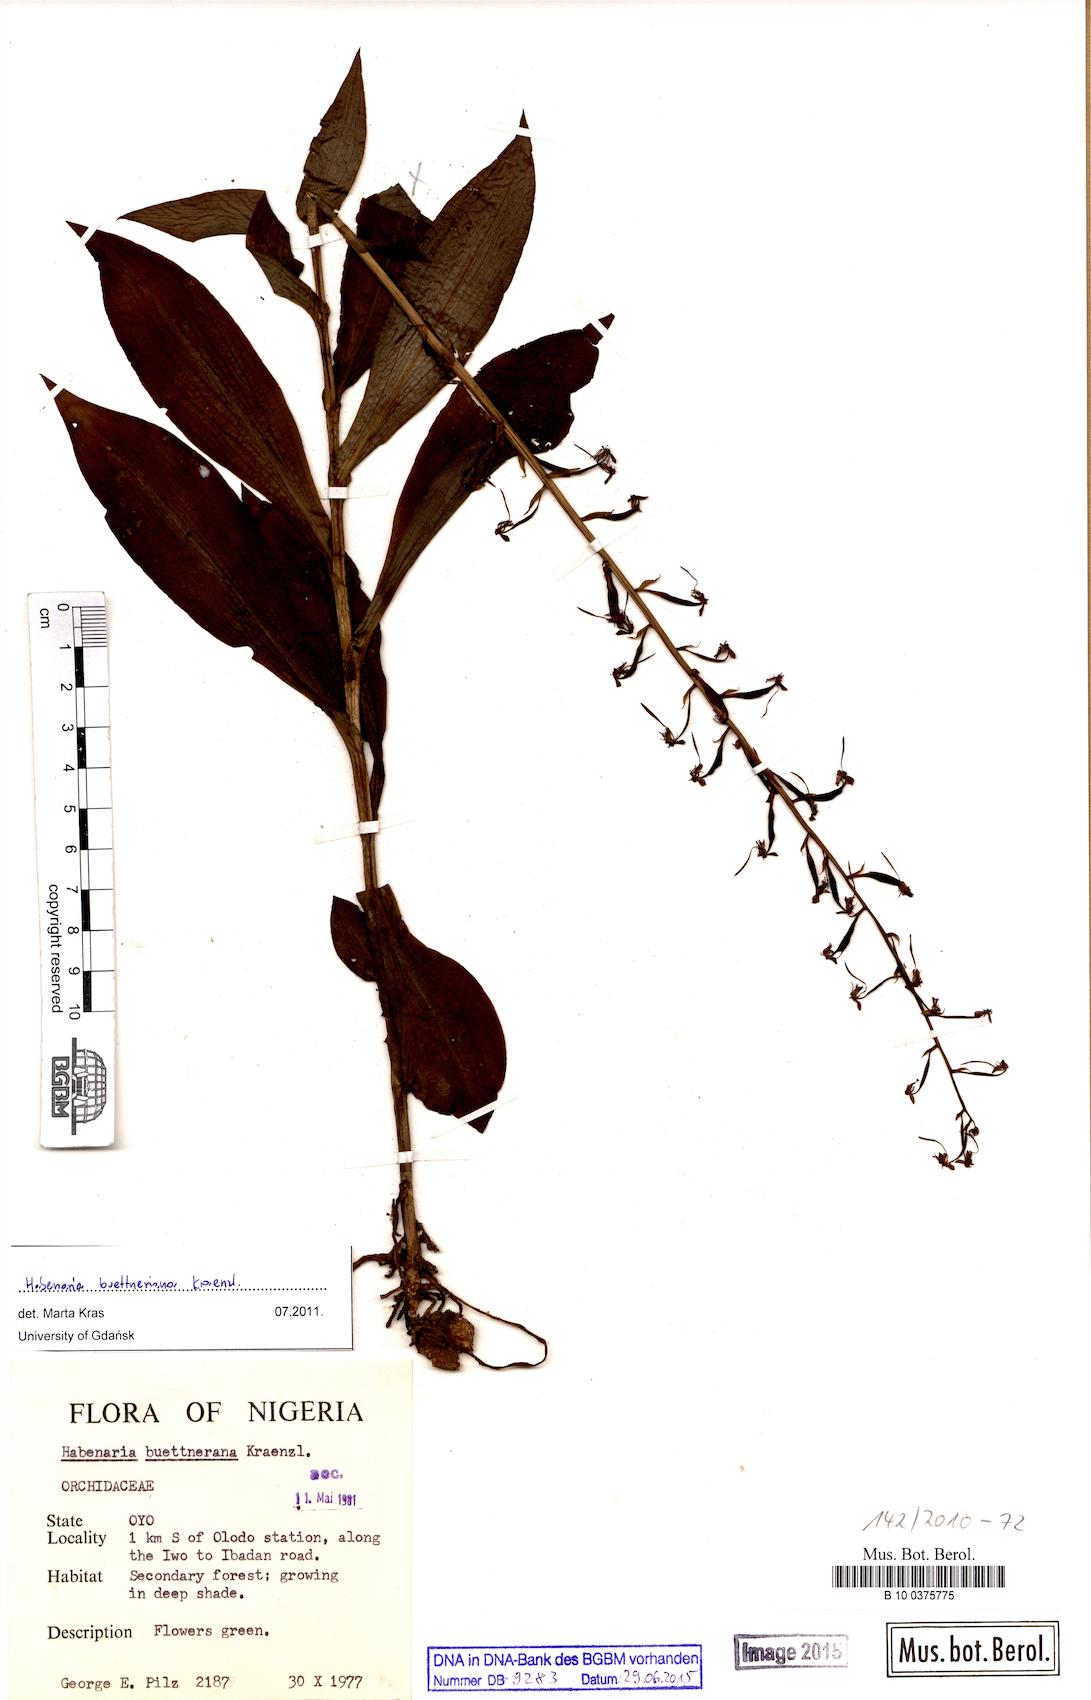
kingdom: Plantae
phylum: Tracheophyta
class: Liliopsida
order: Asparagales
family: Orchidaceae
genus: Habenaria
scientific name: Habenaria buettneriana
